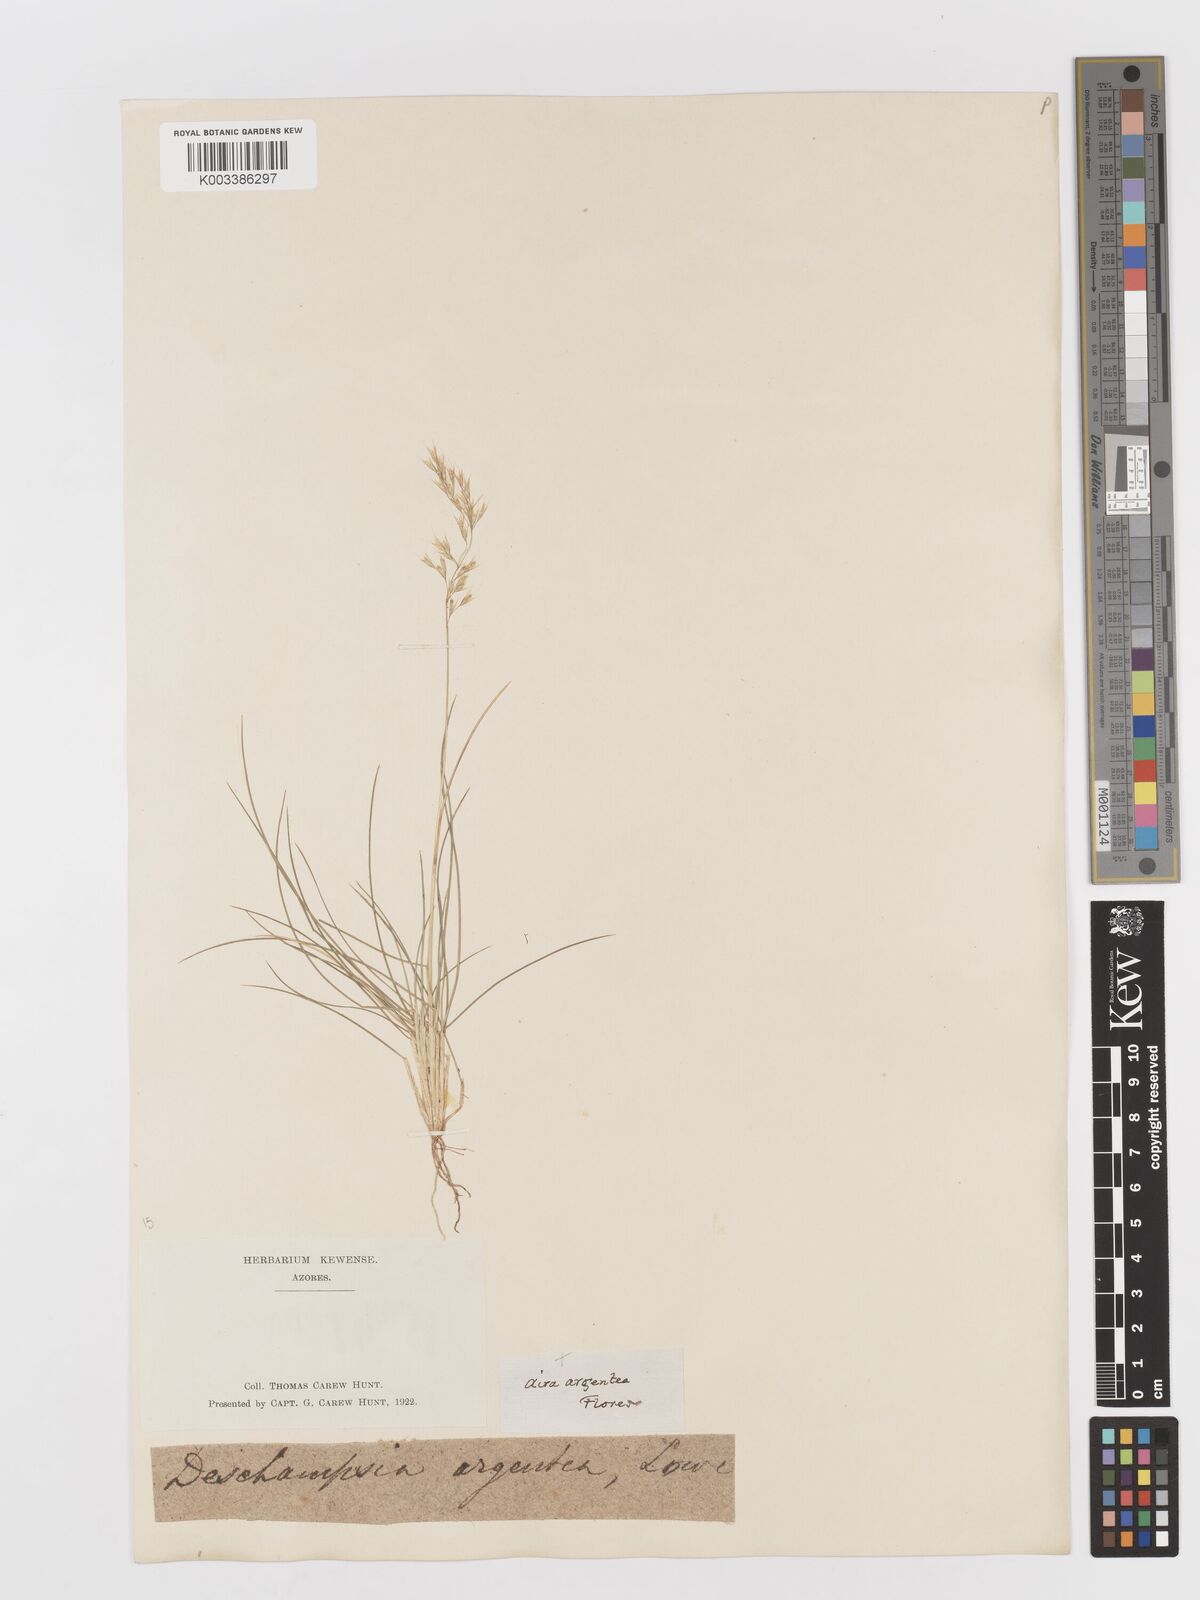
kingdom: Plantae
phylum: Tracheophyta
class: Liliopsida
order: Poales
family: Poaceae
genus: Avenella
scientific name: Avenella foliosa
